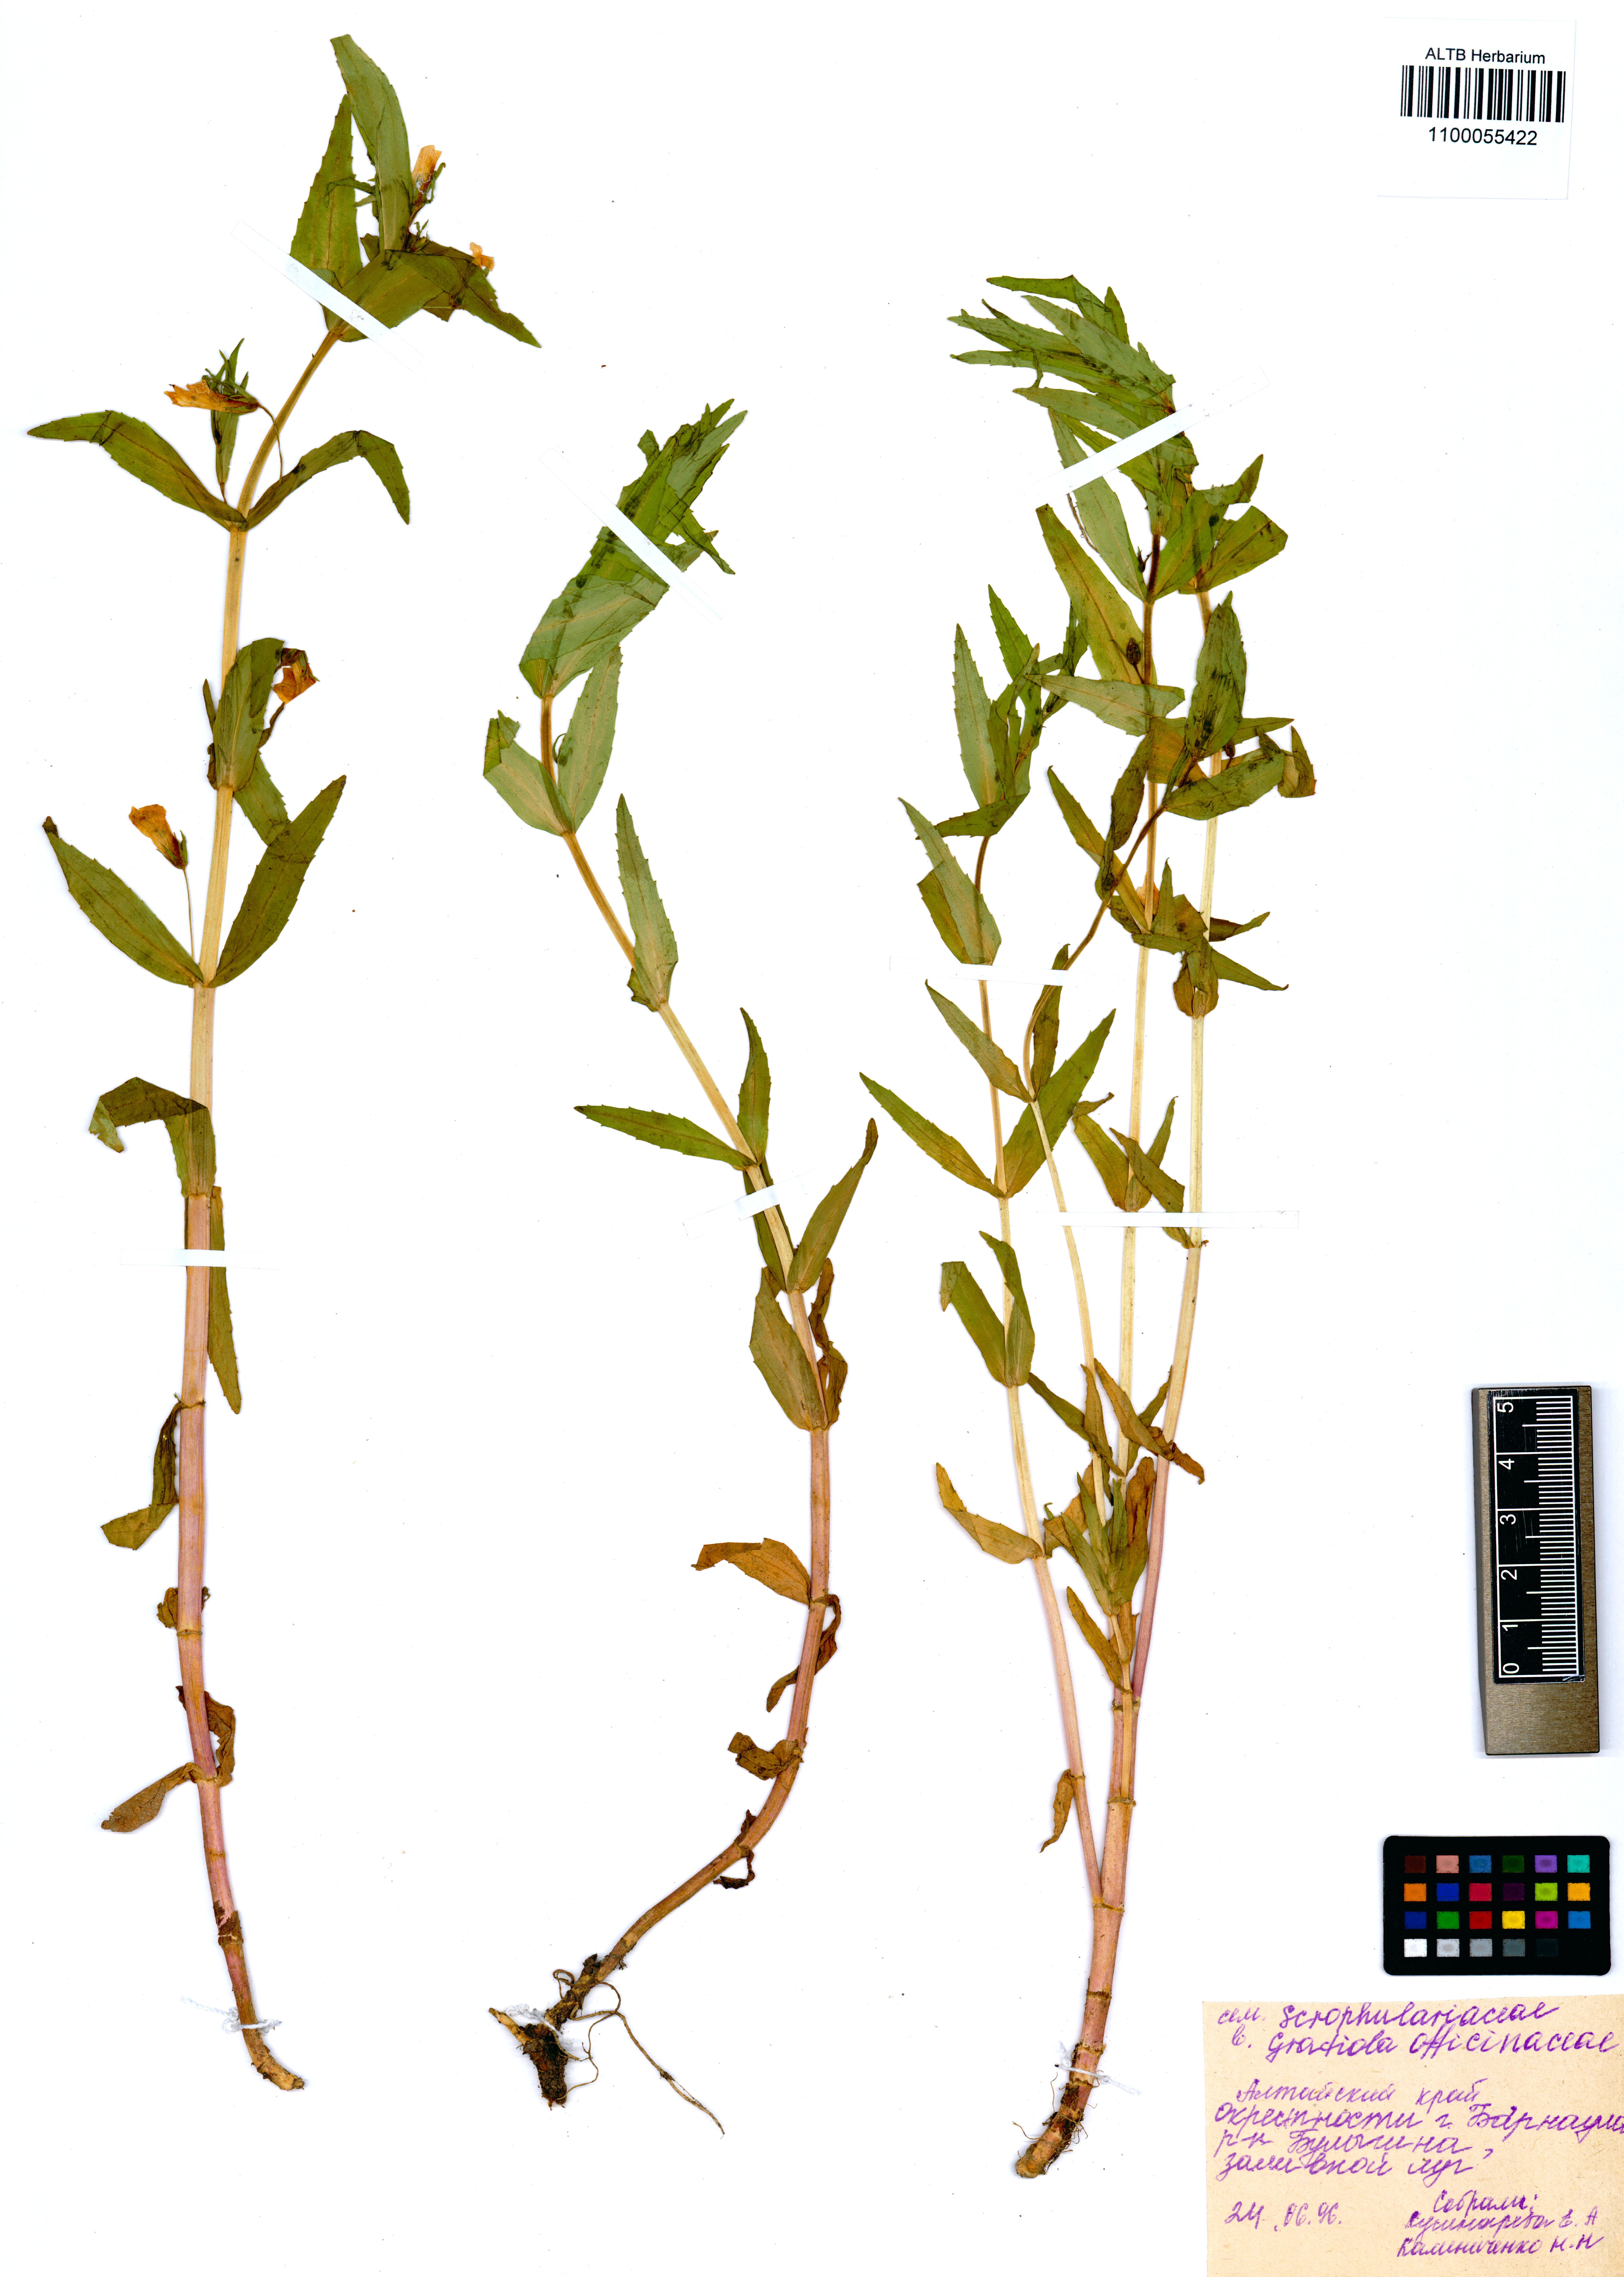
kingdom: Plantae
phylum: Tracheophyta
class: Magnoliopsida
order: Lamiales
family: Plantaginaceae
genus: Gratiola
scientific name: Gratiola officinalis
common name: Gratiola
